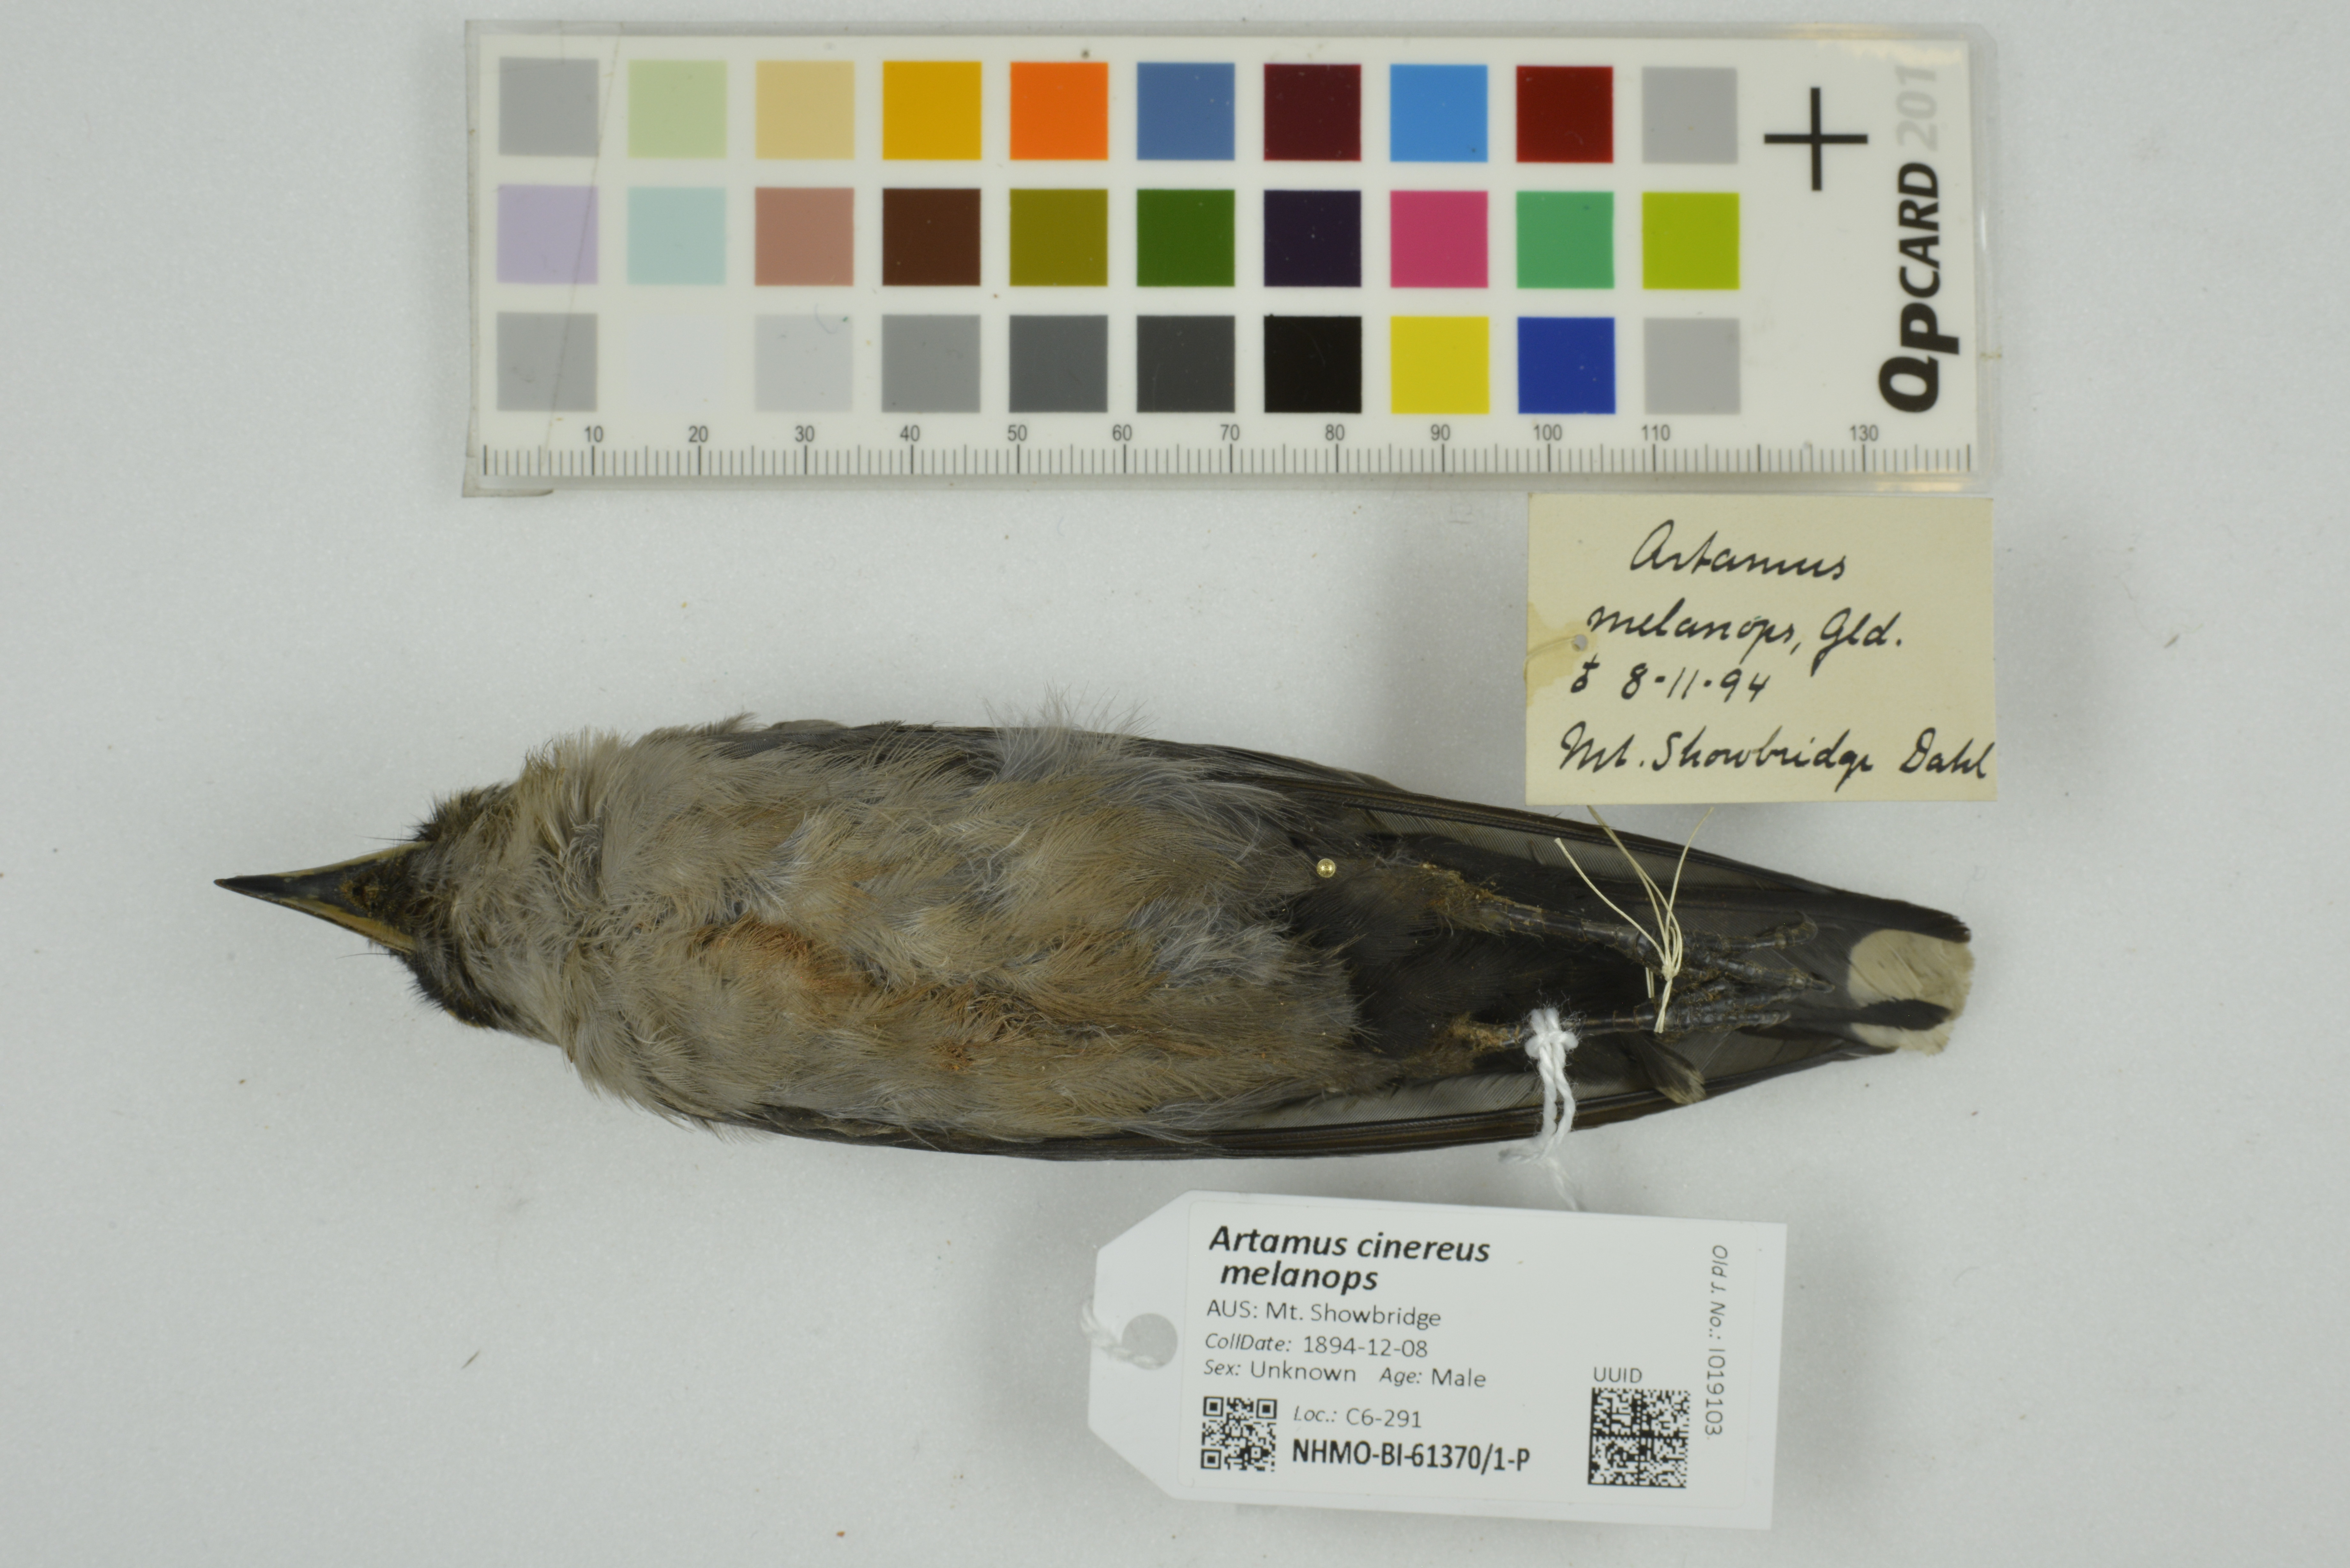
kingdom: Animalia
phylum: Chordata
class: Aves
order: Passeriformes
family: Artamidae
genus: Artamus
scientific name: Artamus cinereus
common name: Black-faced woodswallow
